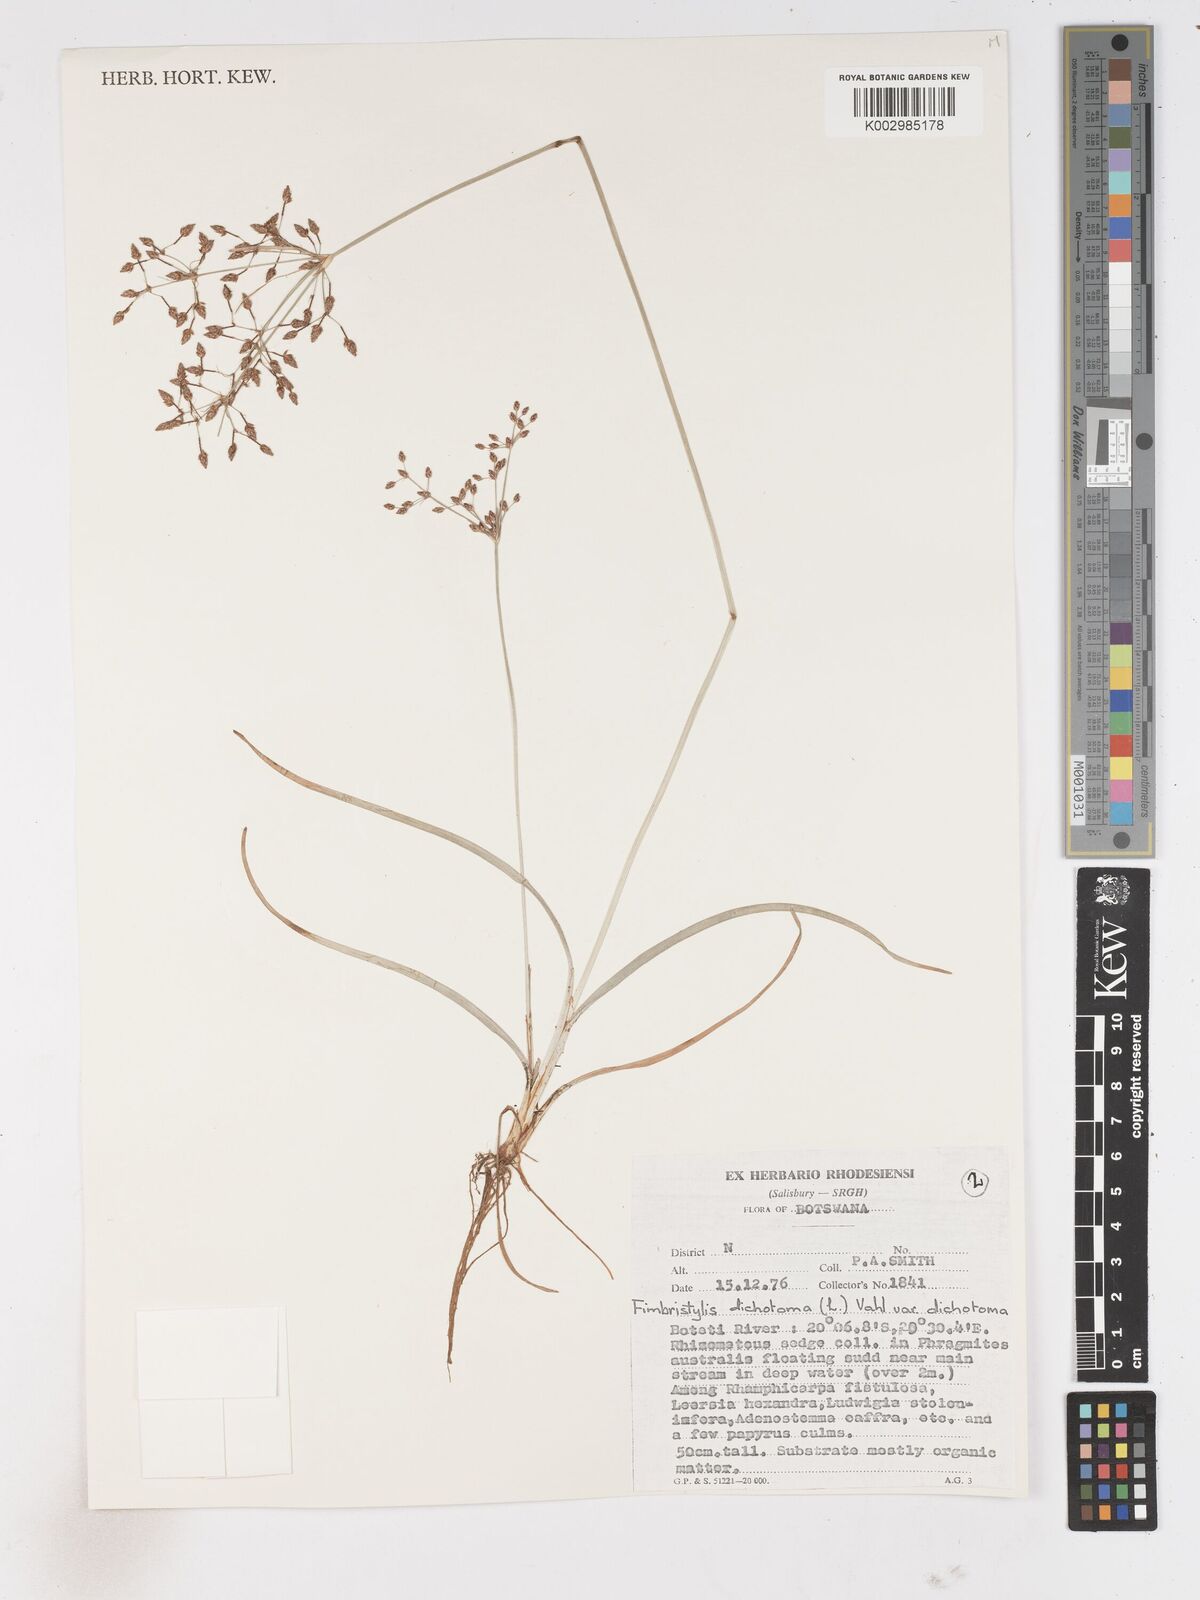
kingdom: Plantae
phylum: Tracheophyta
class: Liliopsida
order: Poales
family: Cyperaceae
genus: Fimbristylis
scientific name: Fimbristylis dichotoma
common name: Forked fimbry
